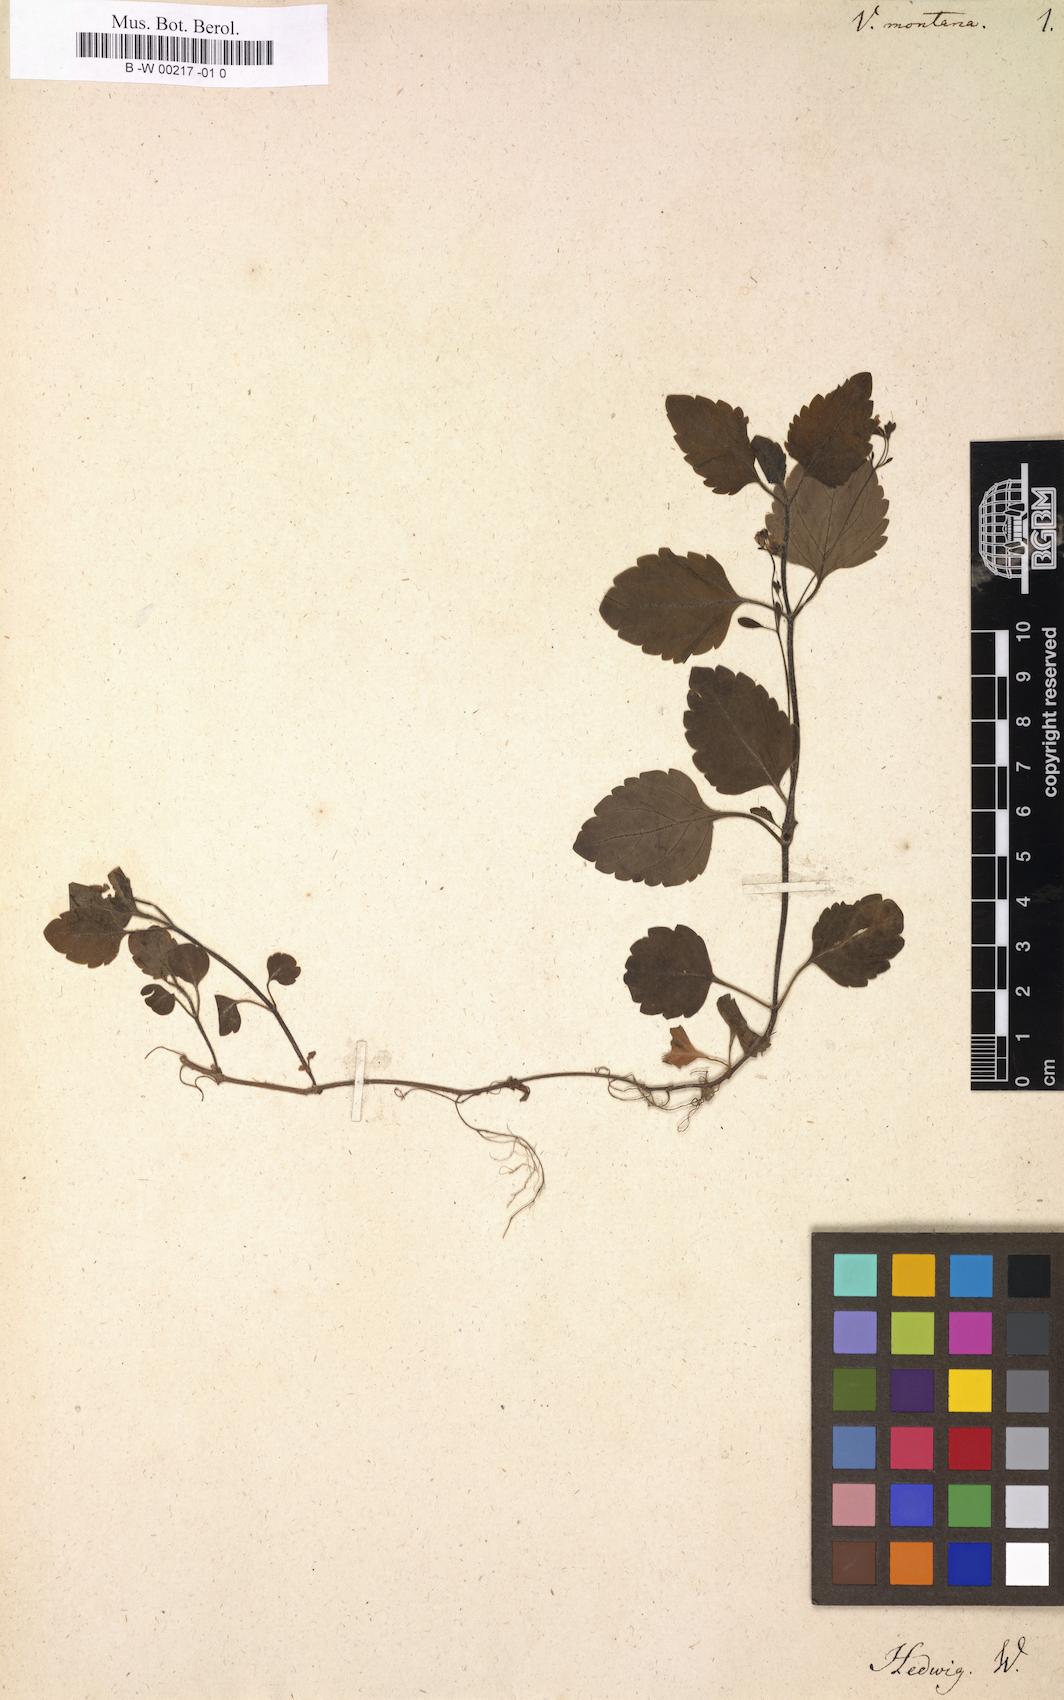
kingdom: Plantae
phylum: Tracheophyta
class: Magnoliopsida
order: Lamiales
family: Plantaginaceae
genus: Veronica
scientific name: Veronica montana
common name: Wood speedwell
